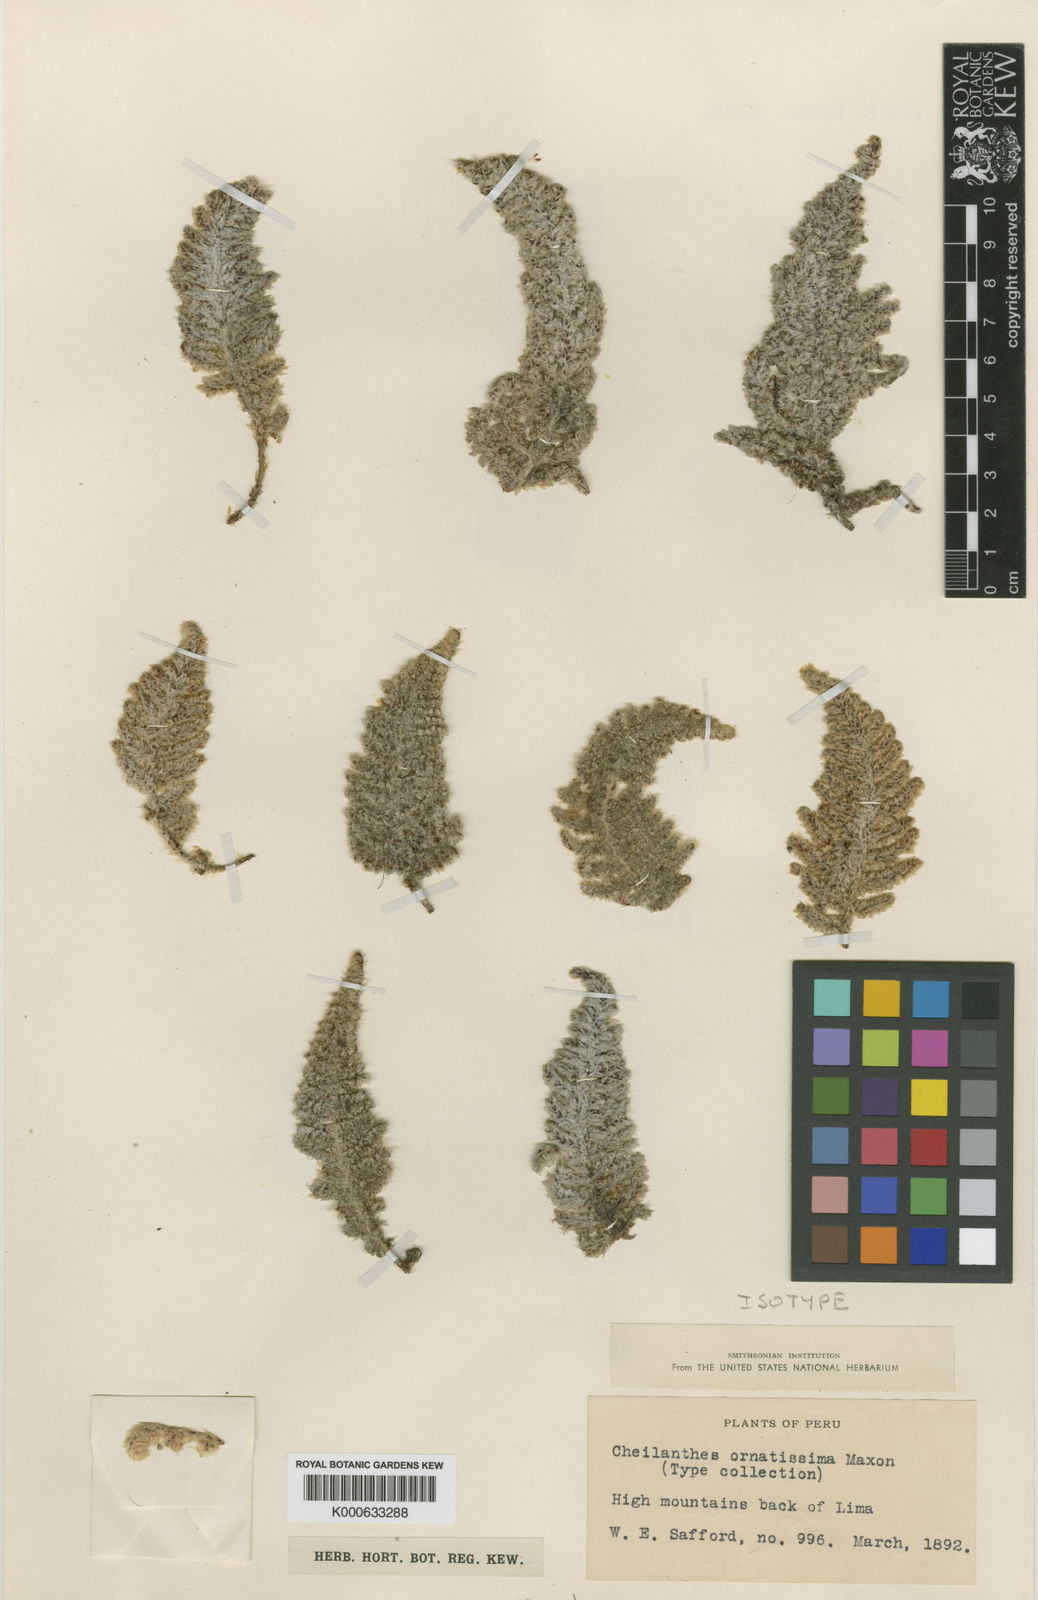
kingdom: Plantae
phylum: Tracheophyta
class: Polypodiopsida
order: Polypodiales
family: Pteridaceae
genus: Cheilanthes
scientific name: Cheilanthes scariosa
